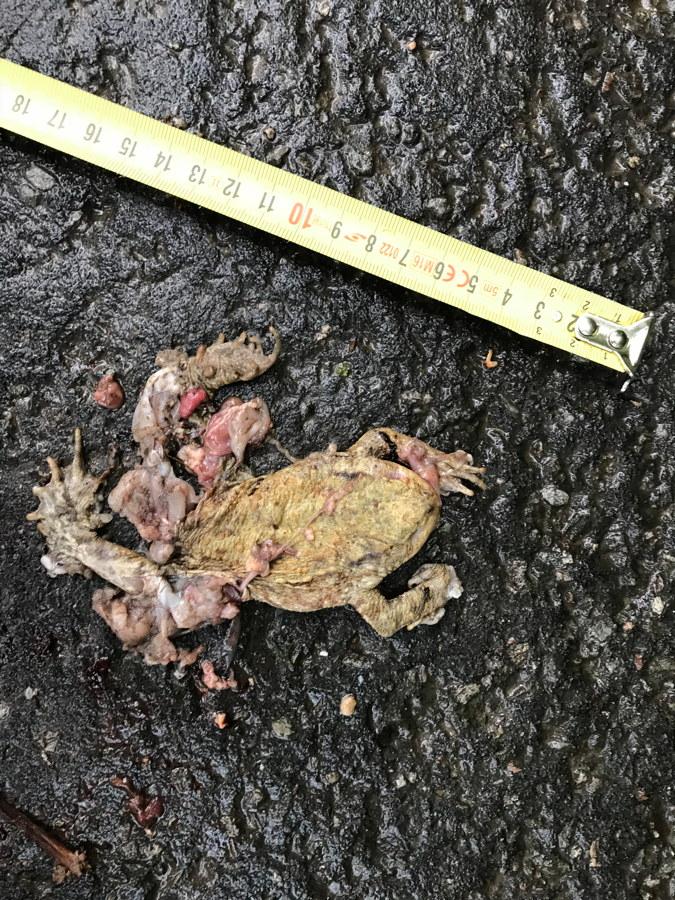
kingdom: Animalia
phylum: Chordata
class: Amphibia
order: Anura
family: Bufonidae
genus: Bufo
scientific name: Bufo bufo
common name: Common toad
